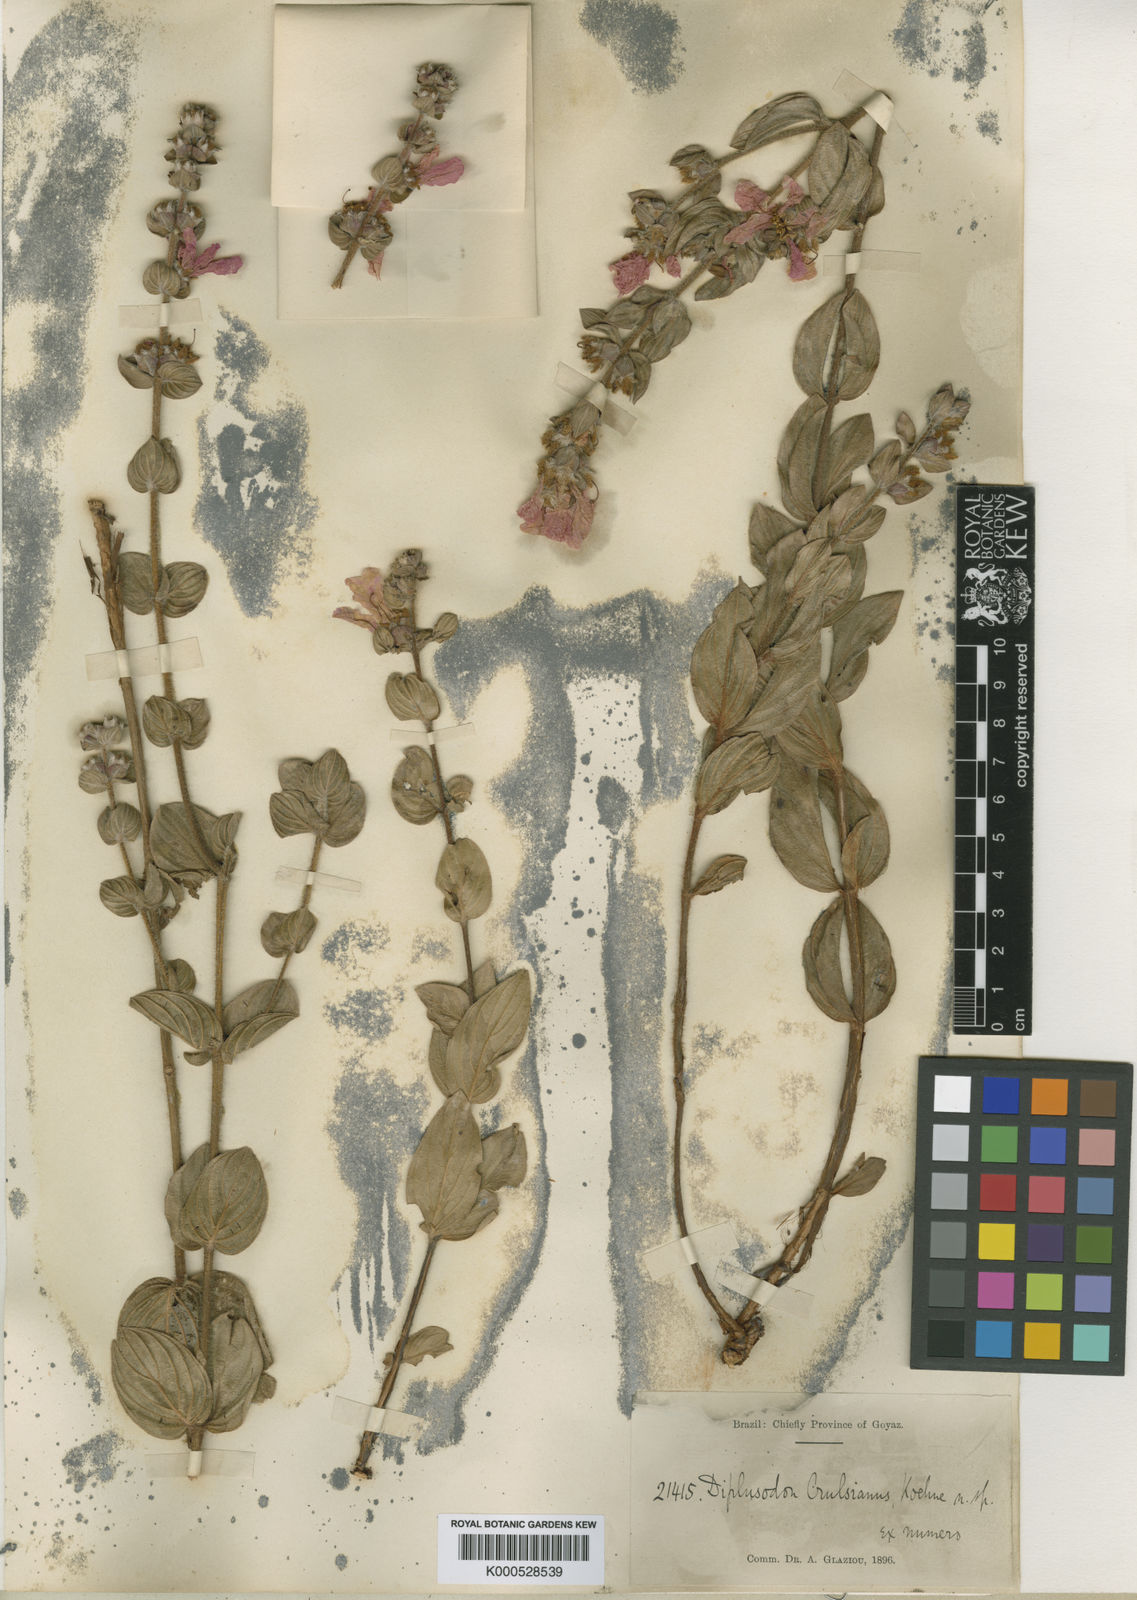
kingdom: Plantae
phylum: Tracheophyta
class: Magnoliopsida
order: Myrtales
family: Lythraceae
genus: Diplusodon
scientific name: Diplusodon sessiliflorus
